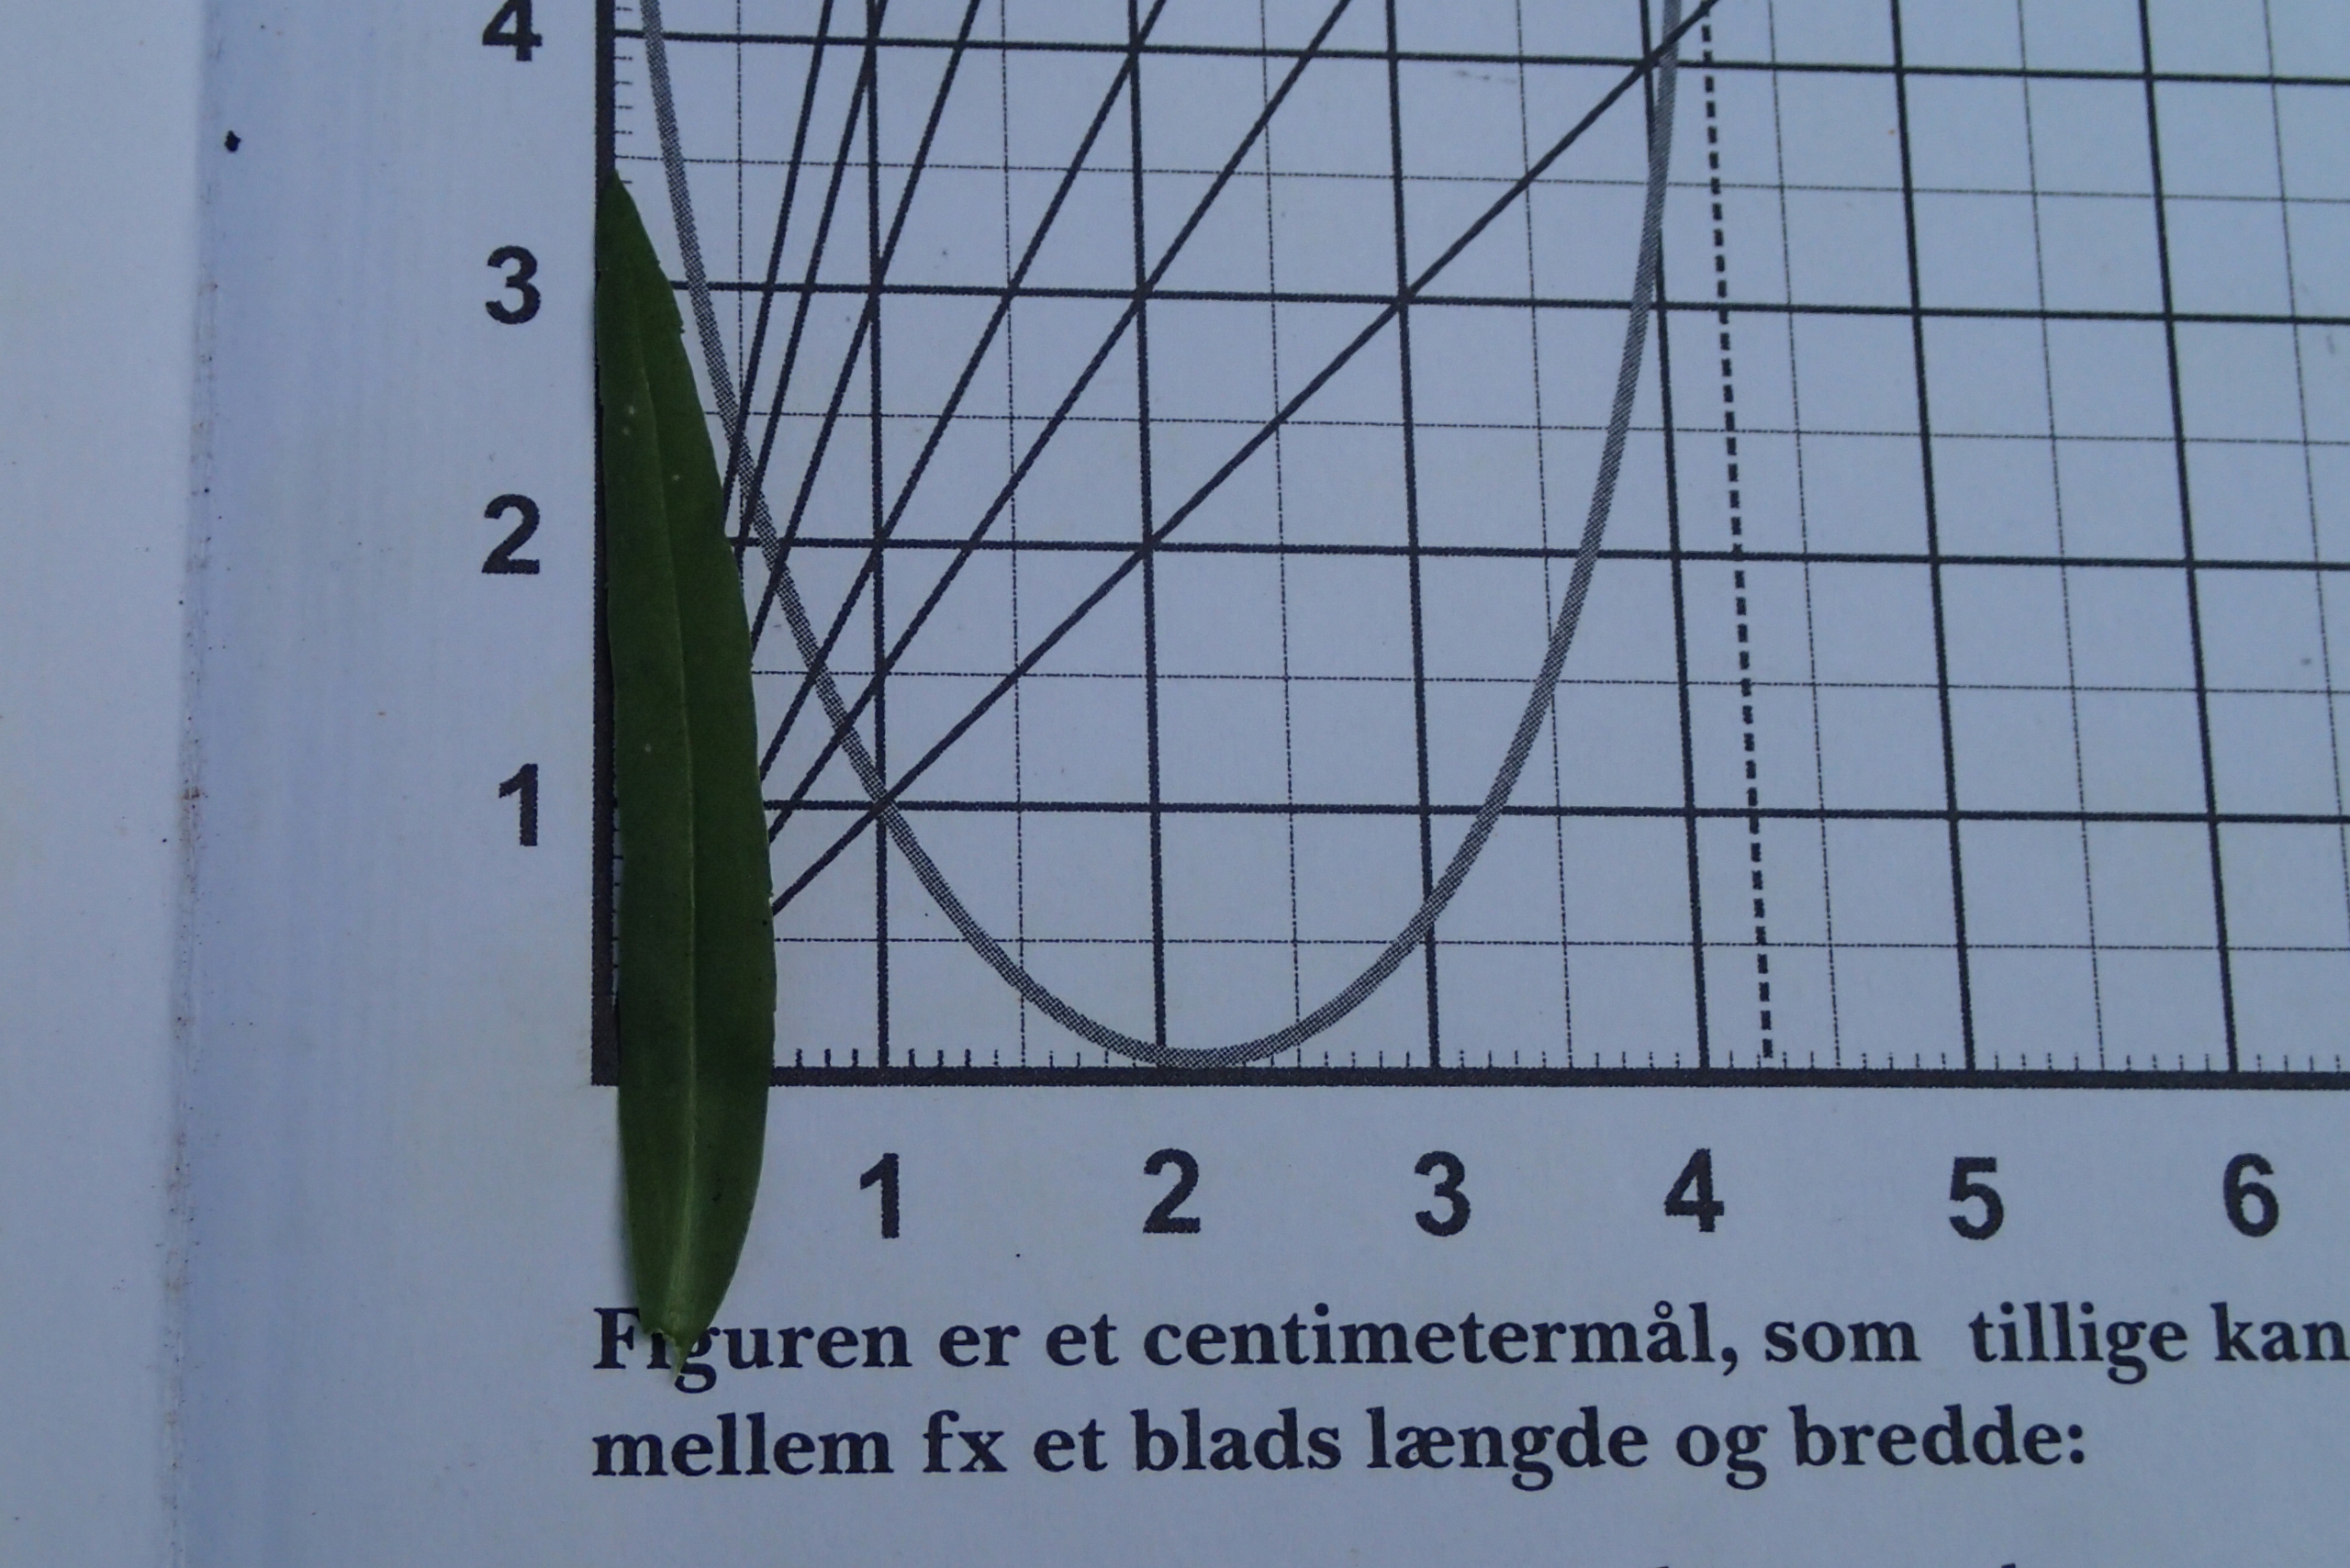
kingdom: Plantae
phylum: Tracheophyta
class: Magnoliopsida
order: Lamiales
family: Plantaginaceae
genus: Veronica
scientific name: Veronica scutellata
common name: Smalbladet ærenpris
